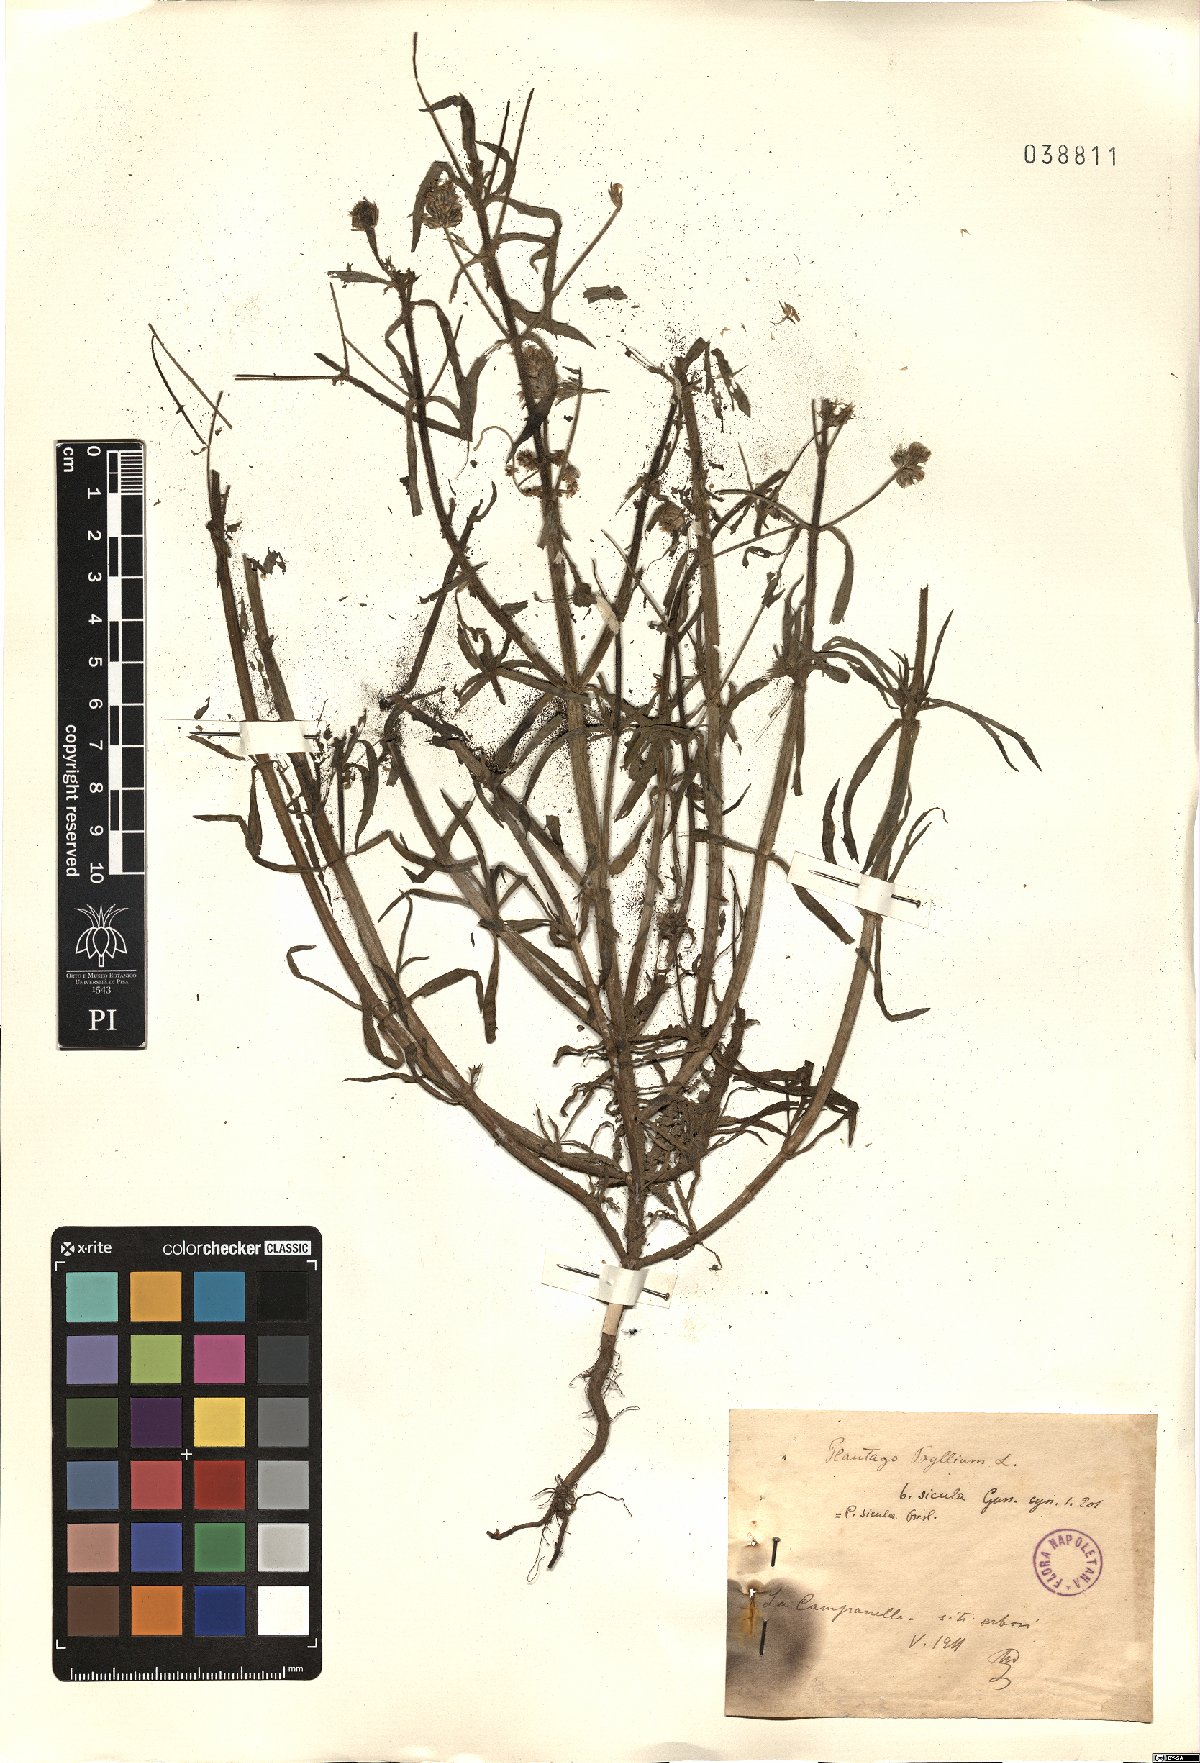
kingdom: Plantae
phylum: Tracheophyta
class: Magnoliopsida
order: Lamiales
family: Plantaginaceae
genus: Plantago
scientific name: Plantago afra
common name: Glandular plantain
